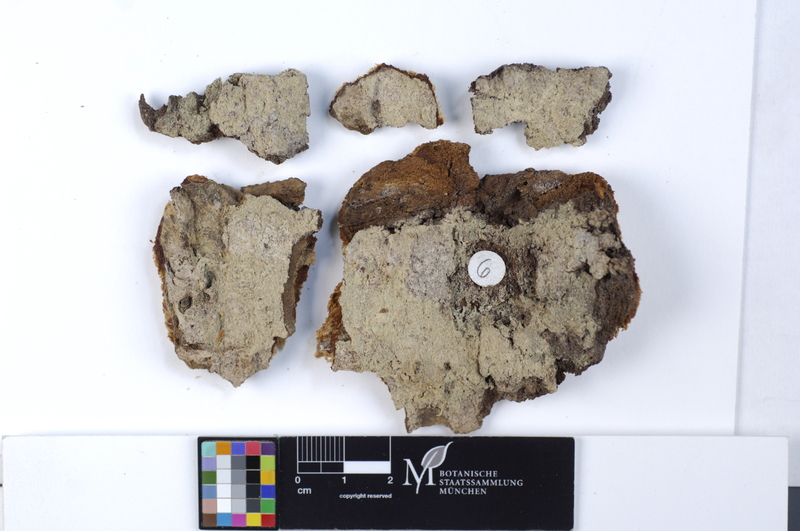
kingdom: Fungi
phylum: Basidiomycota
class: Agaricomycetes
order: Cantharellales
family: Botryobasidiaceae
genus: Botryobasidium
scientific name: Botryobasidium vagum
